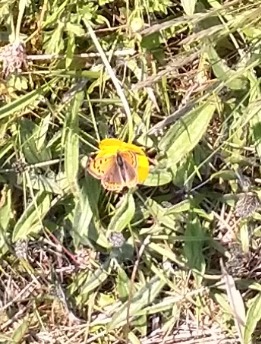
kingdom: Animalia
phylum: Arthropoda
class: Insecta
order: Lepidoptera
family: Lycaenidae
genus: Lycaena
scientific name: Lycaena phlaeas
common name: Lille ildfugl
